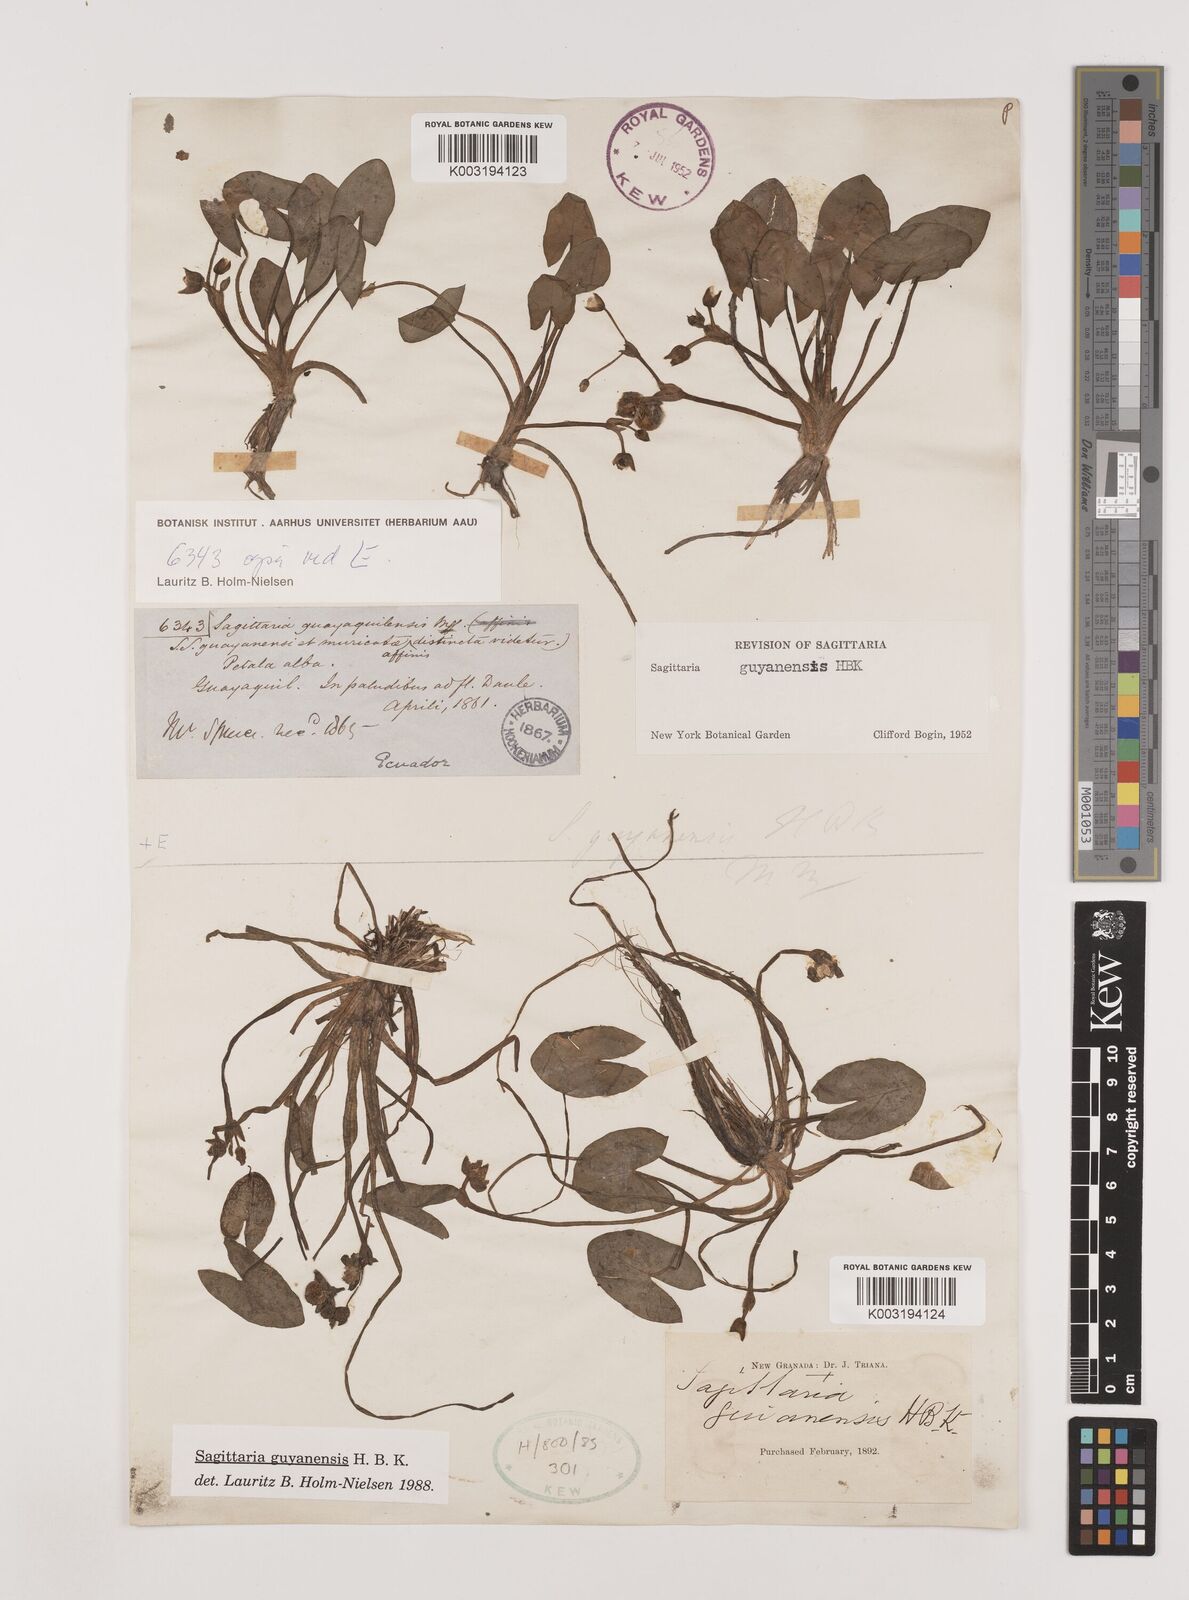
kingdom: Plantae
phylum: Tracheophyta
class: Liliopsida
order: Alismatales
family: Alismataceae
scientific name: Alismataceae
